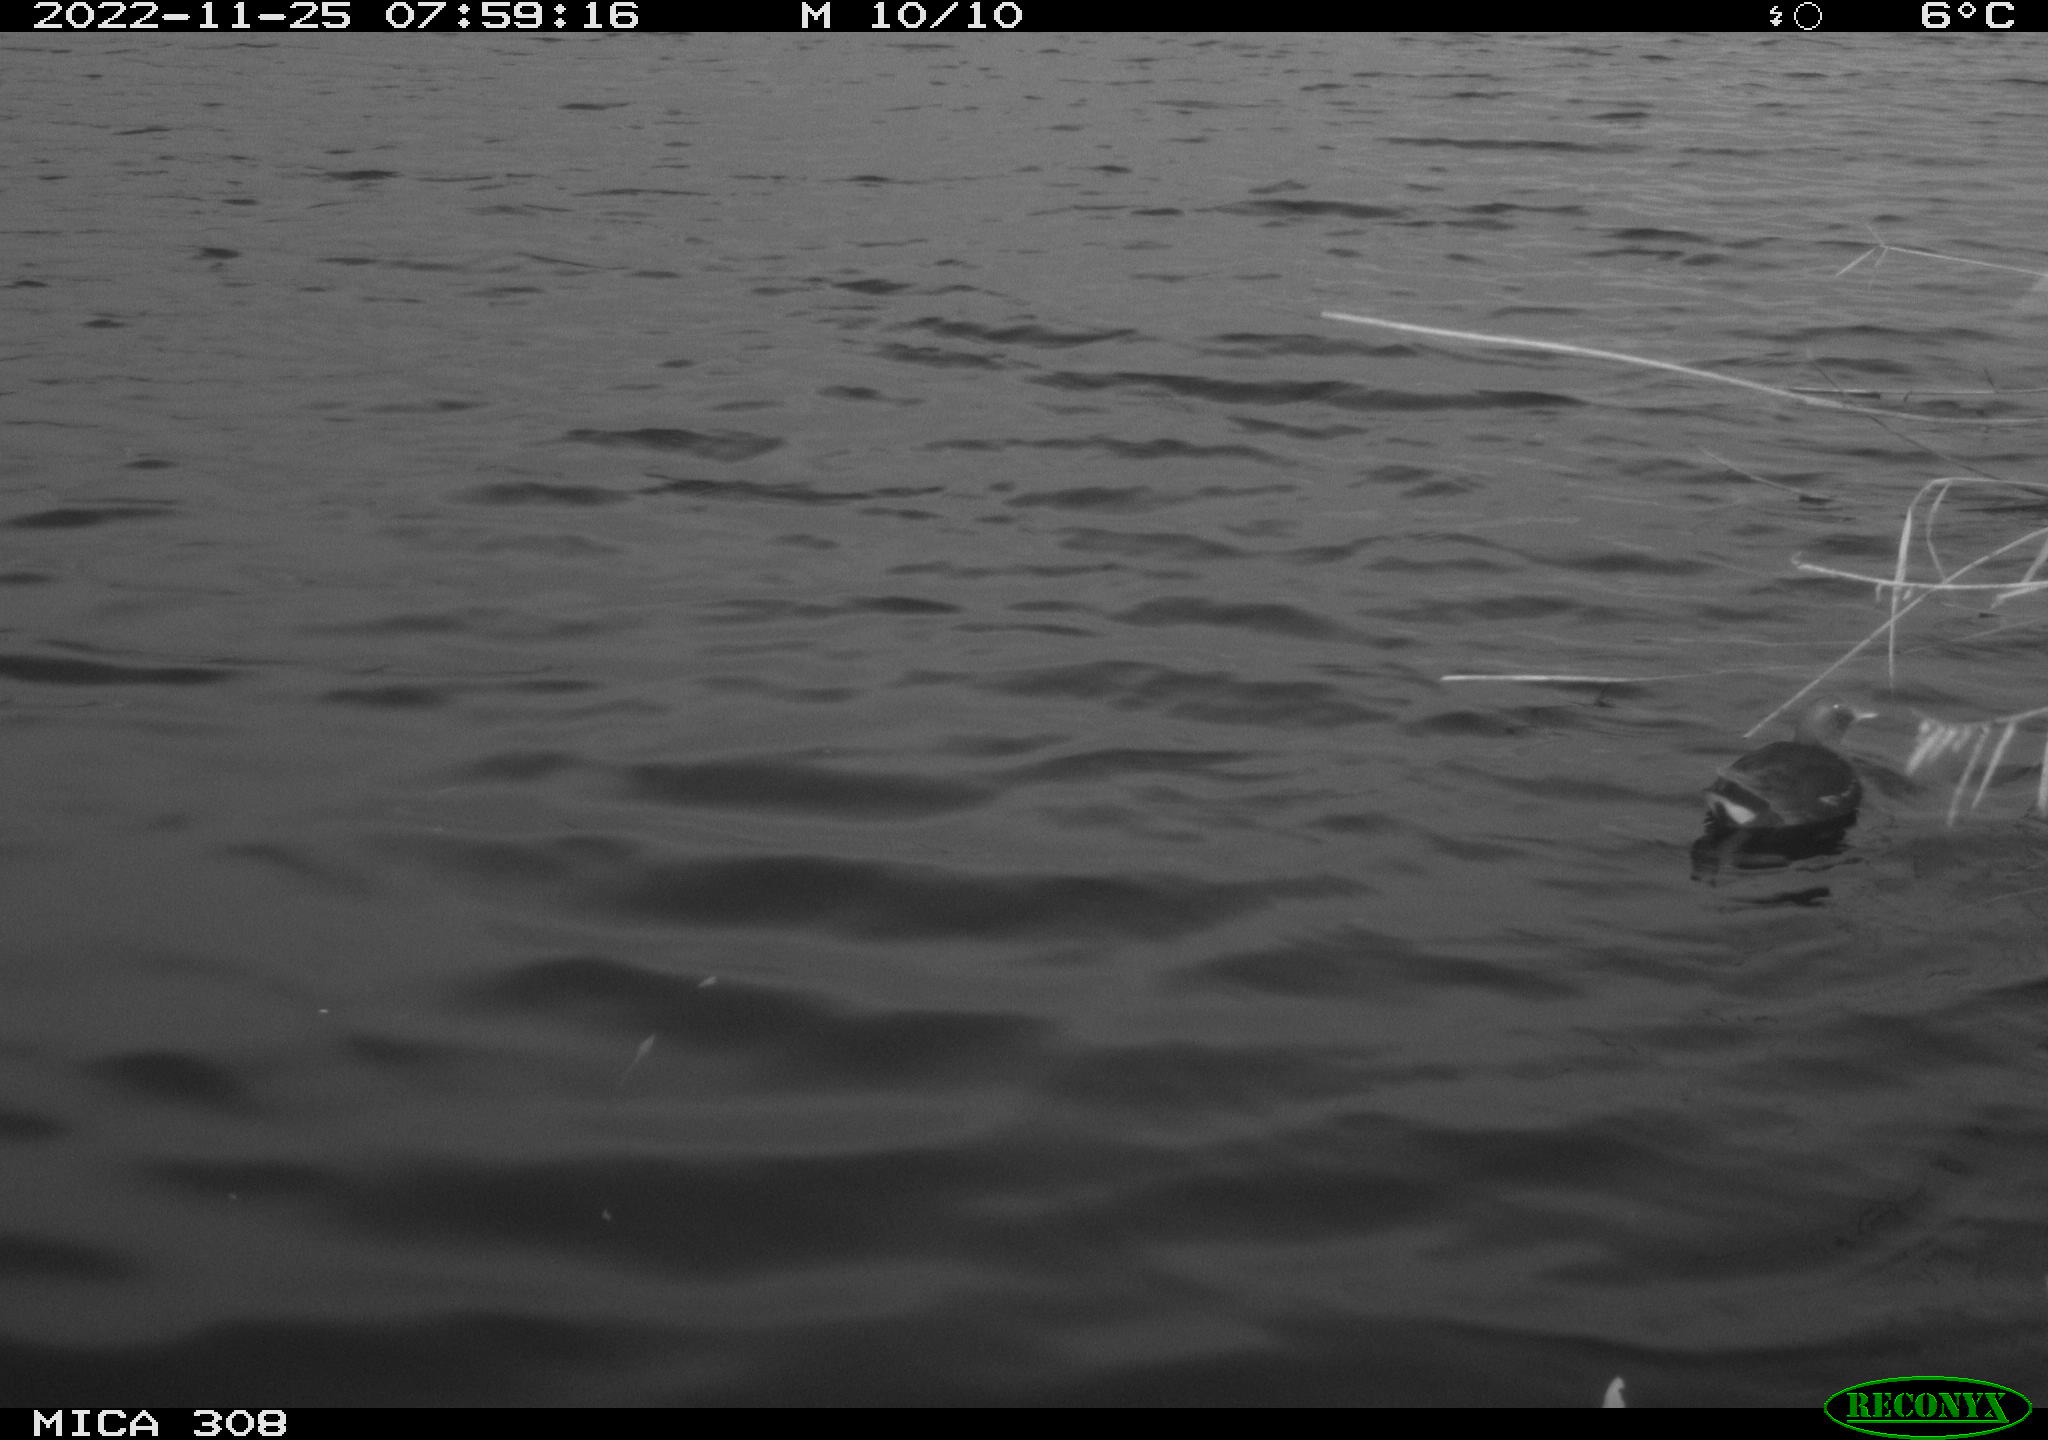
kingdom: Animalia
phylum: Chordata
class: Aves
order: Gruiformes
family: Rallidae
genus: Gallinula
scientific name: Gallinula chloropus
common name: Common moorhen
